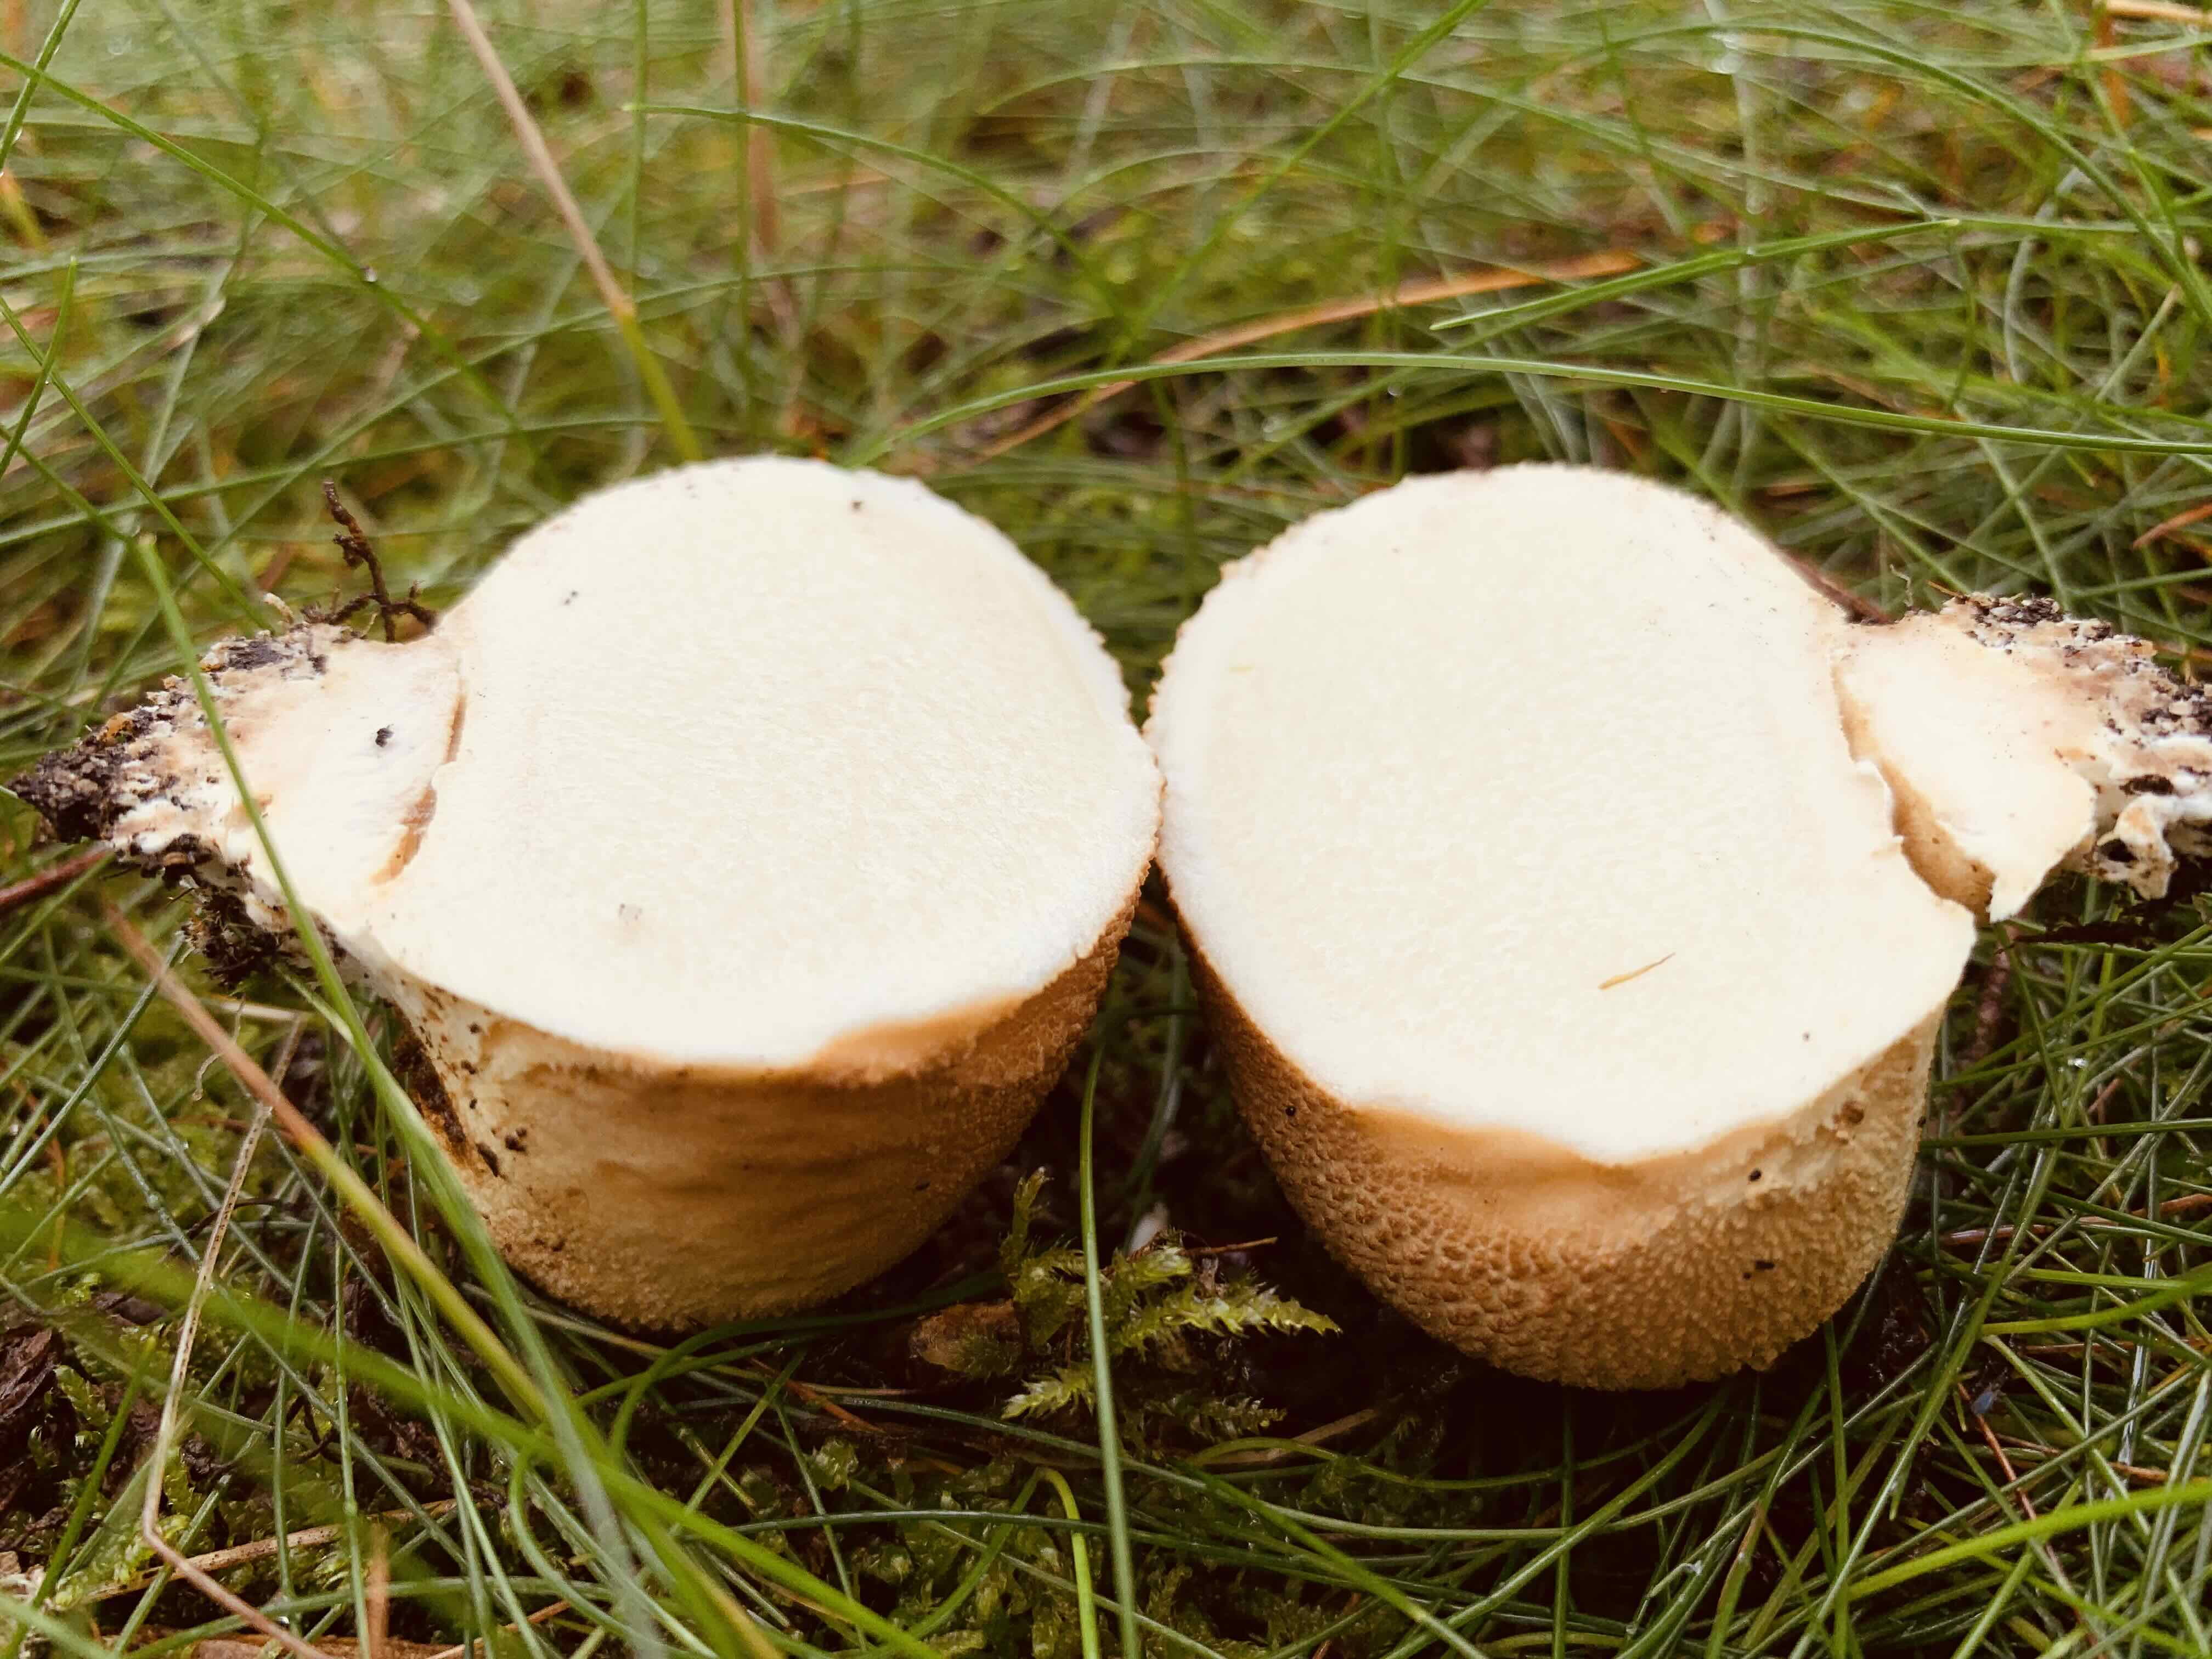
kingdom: Fungi
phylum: Basidiomycota
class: Agaricomycetes
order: Boletales
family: Sclerodermataceae
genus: Scleroderma
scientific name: Scleroderma citrinum
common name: almindelig bruskbold
